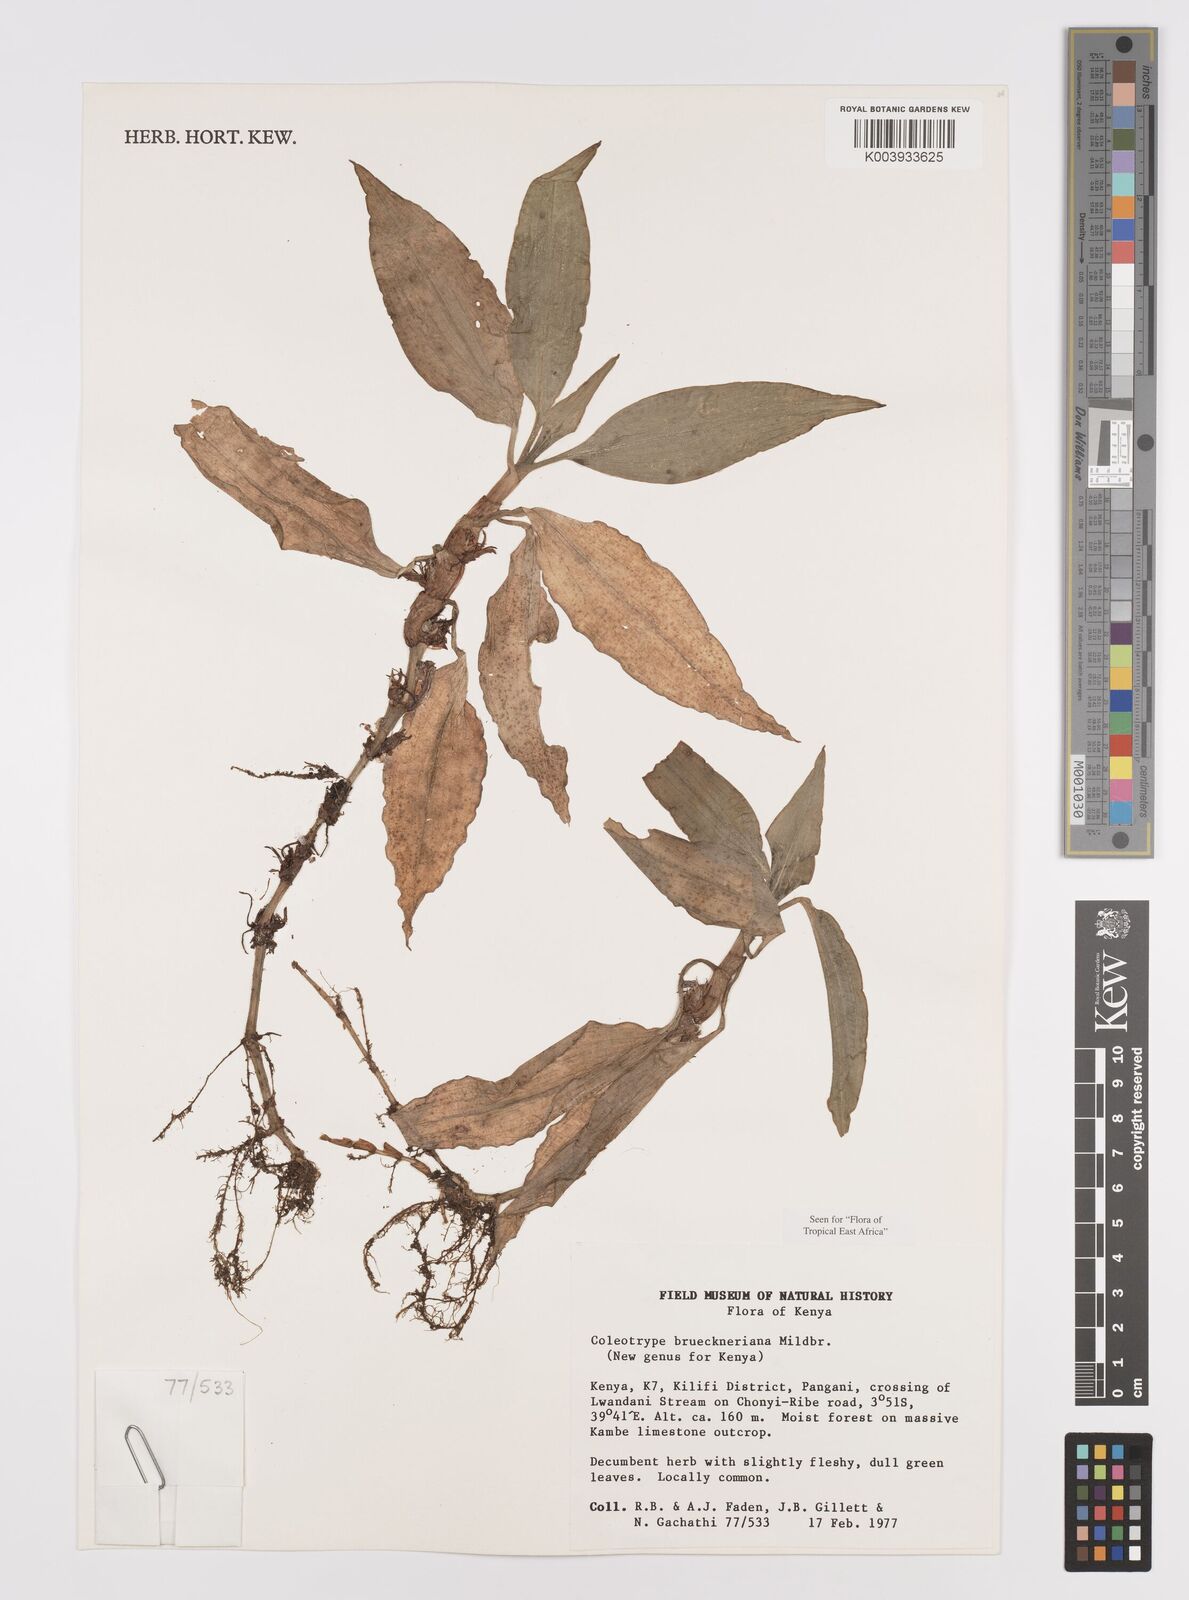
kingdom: Plantae
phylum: Tracheophyta
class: Liliopsida
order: Commelinales
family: Commelinaceae
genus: Coleotrype
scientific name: Coleotrype brueckneriana
